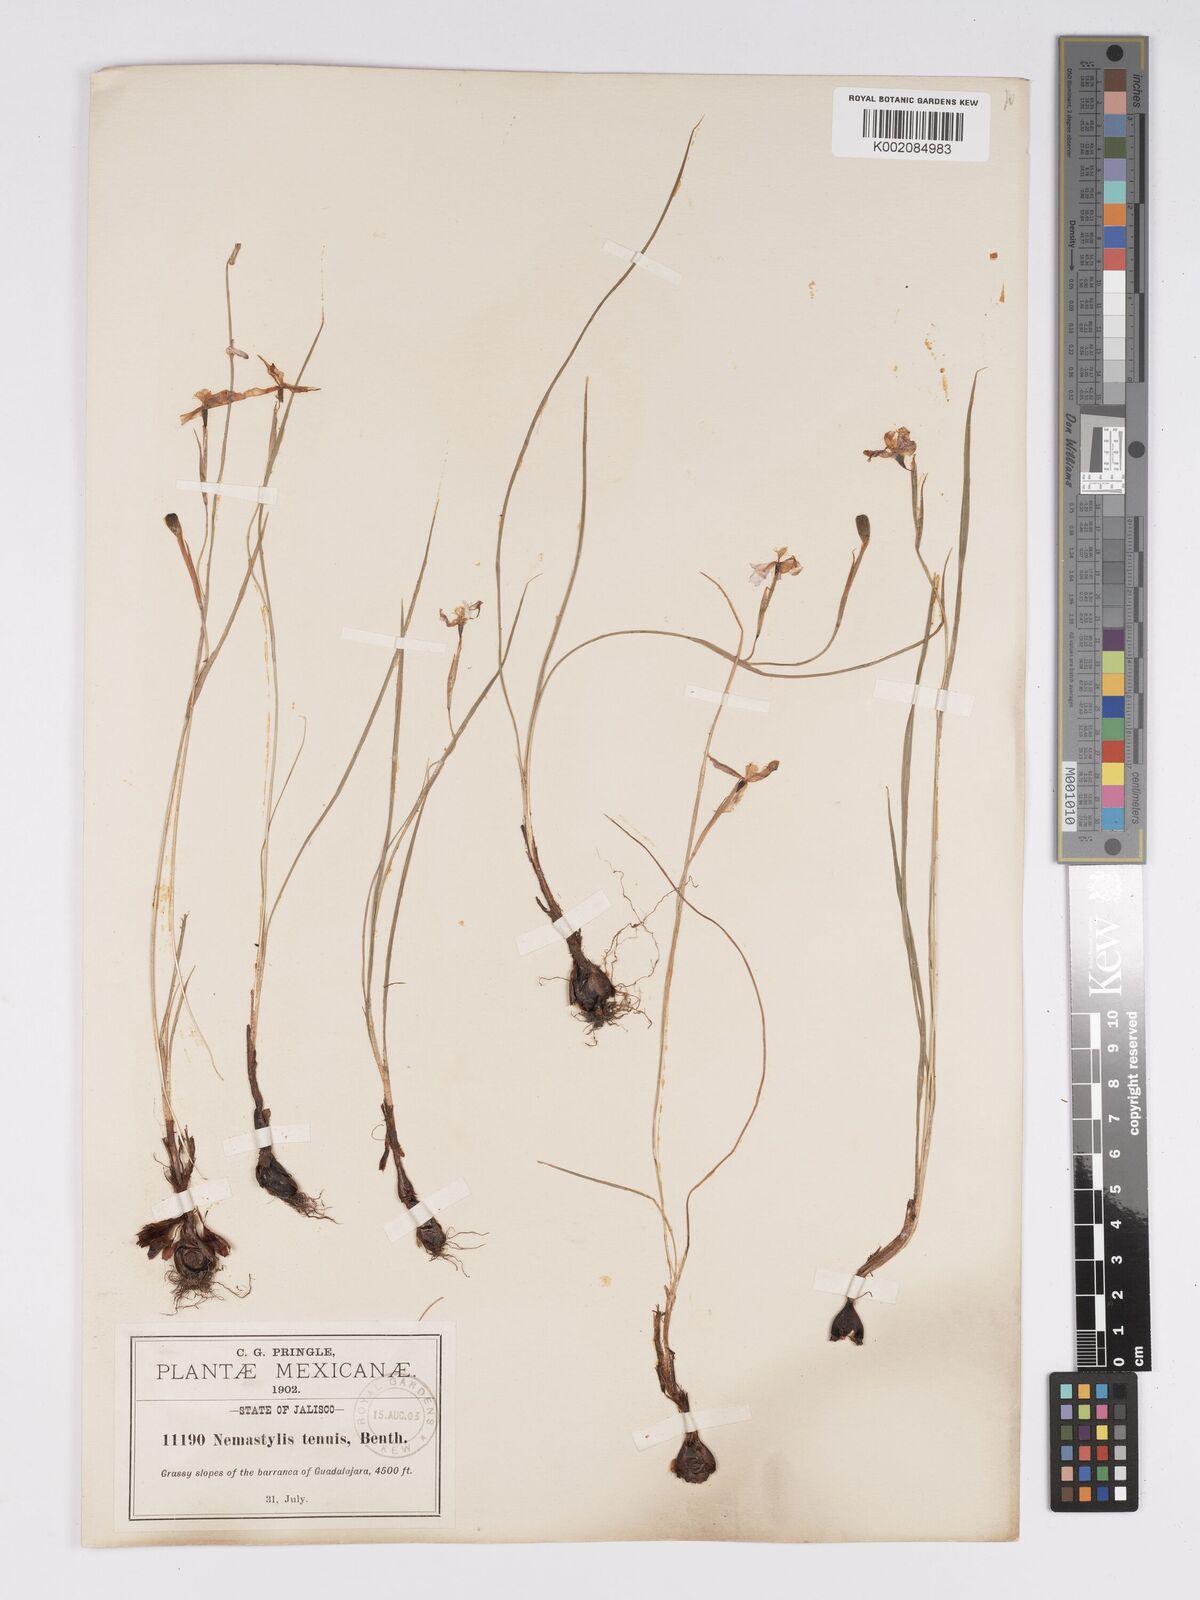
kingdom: Plantae
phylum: Tracheophyta
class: Liliopsida
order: Asparagales
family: Iridaceae
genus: Nemastylis
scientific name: Nemastylis tenuis
